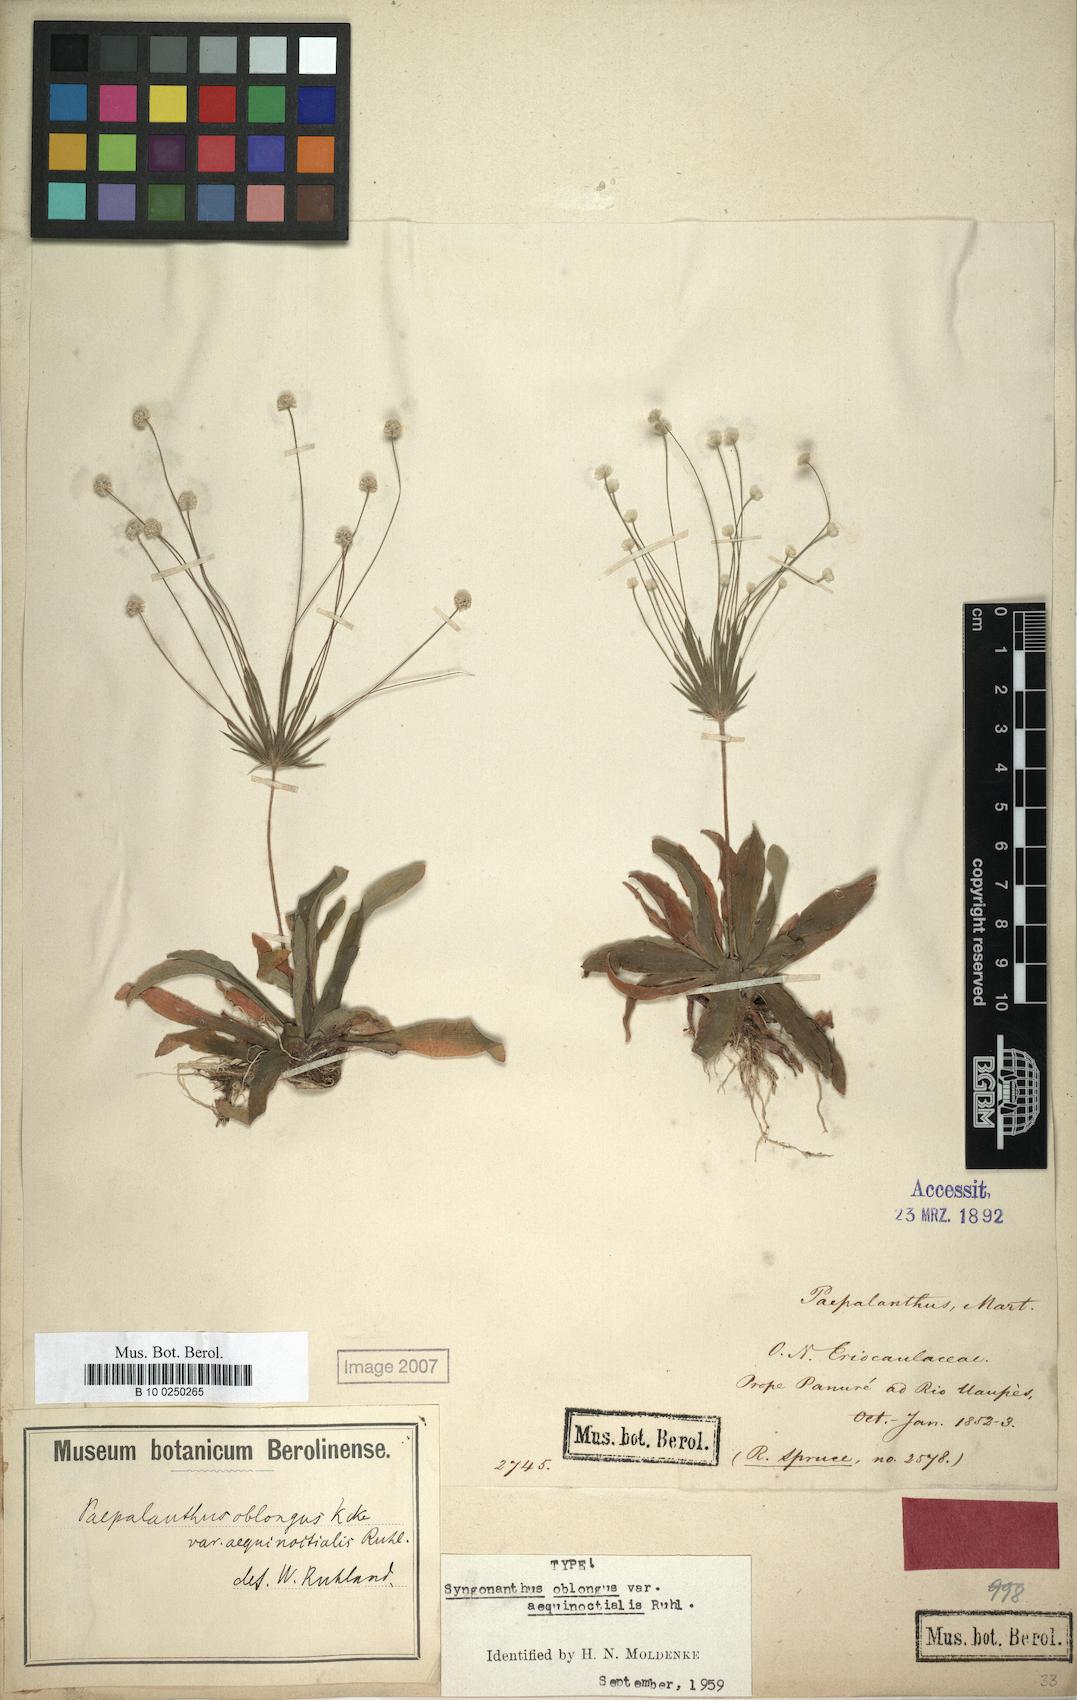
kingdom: Plantae
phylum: Tracheophyta
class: Liliopsida
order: Poales
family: Eriocaulaceae
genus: Syngonanthus
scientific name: Syngonanthus oblongus
